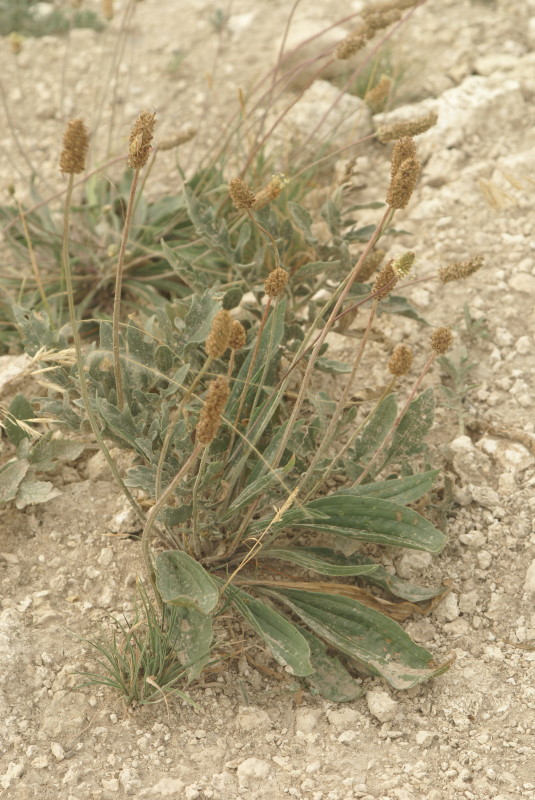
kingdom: Plantae
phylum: Tracheophyta
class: Magnoliopsida
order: Lamiales
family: Plantaginaceae
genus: Plantago
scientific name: Plantago lanceolata
